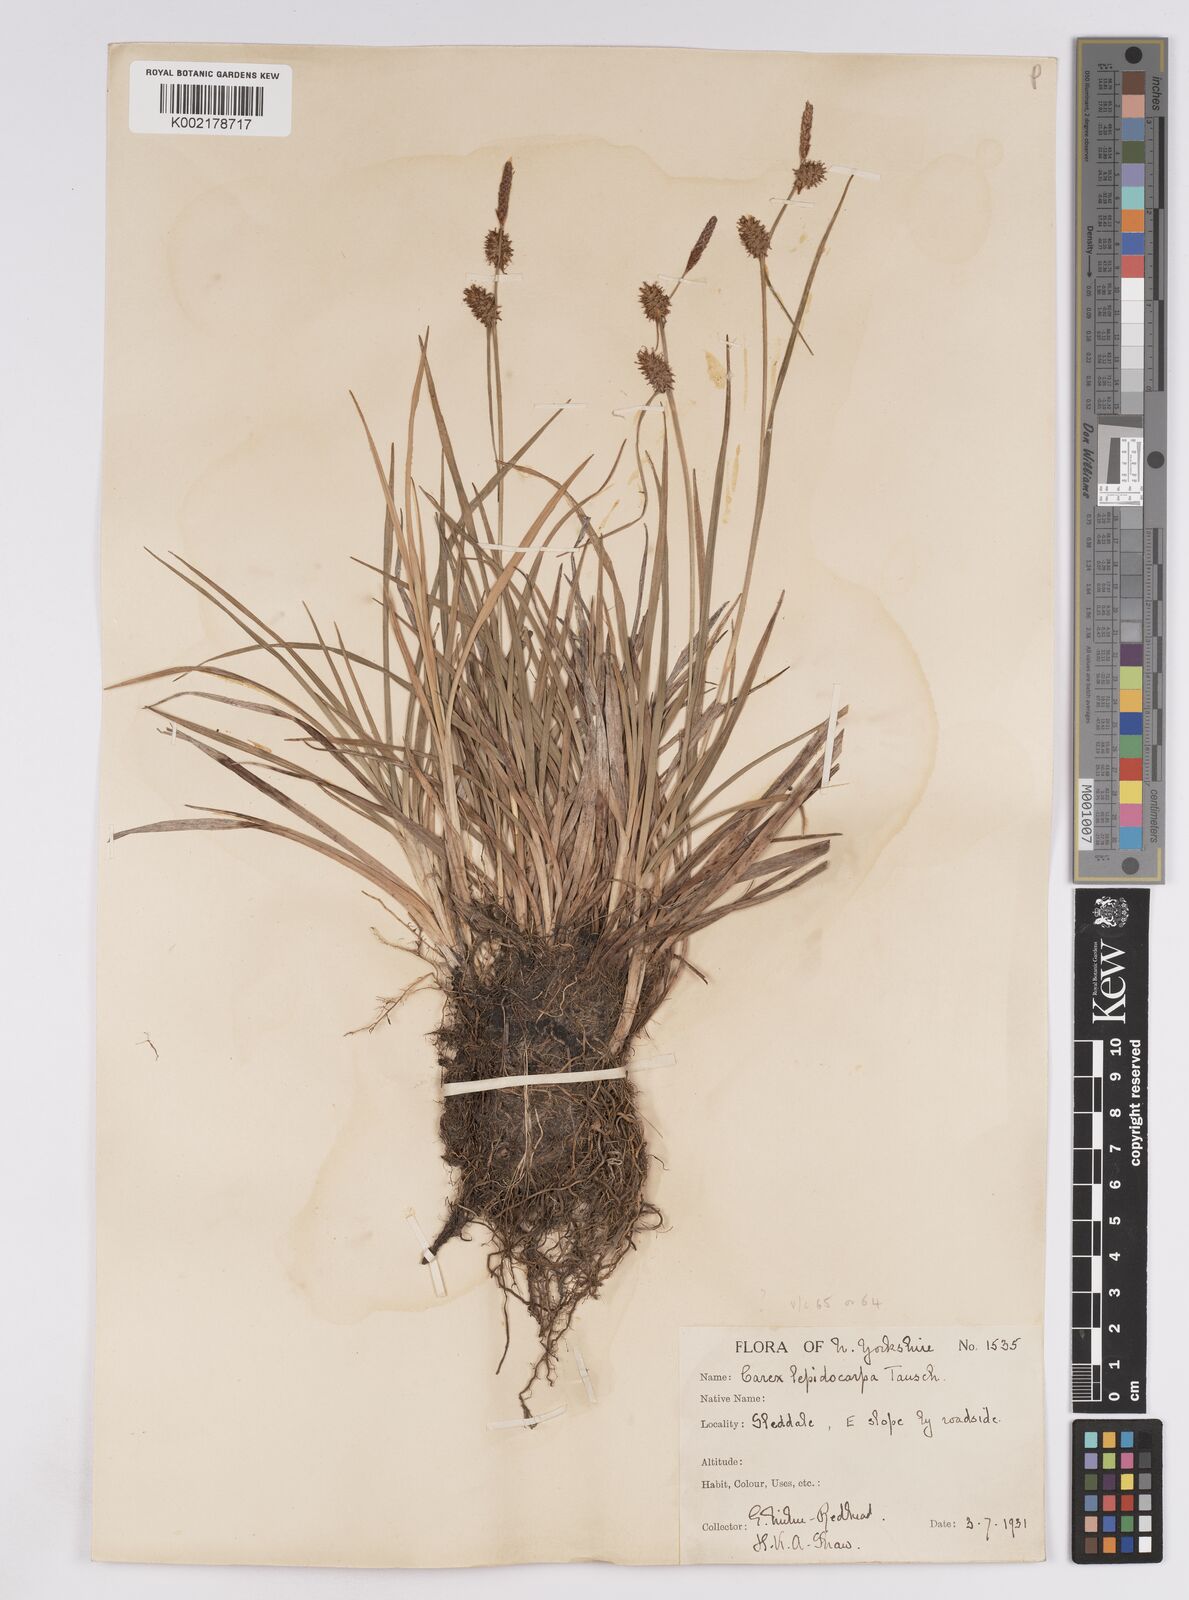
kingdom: Plantae
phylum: Tracheophyta
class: Liliopsida
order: Poales
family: Cyperaceae
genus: Carex
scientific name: Carex lepidocarpa
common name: Long-stalked yellow-sedge
